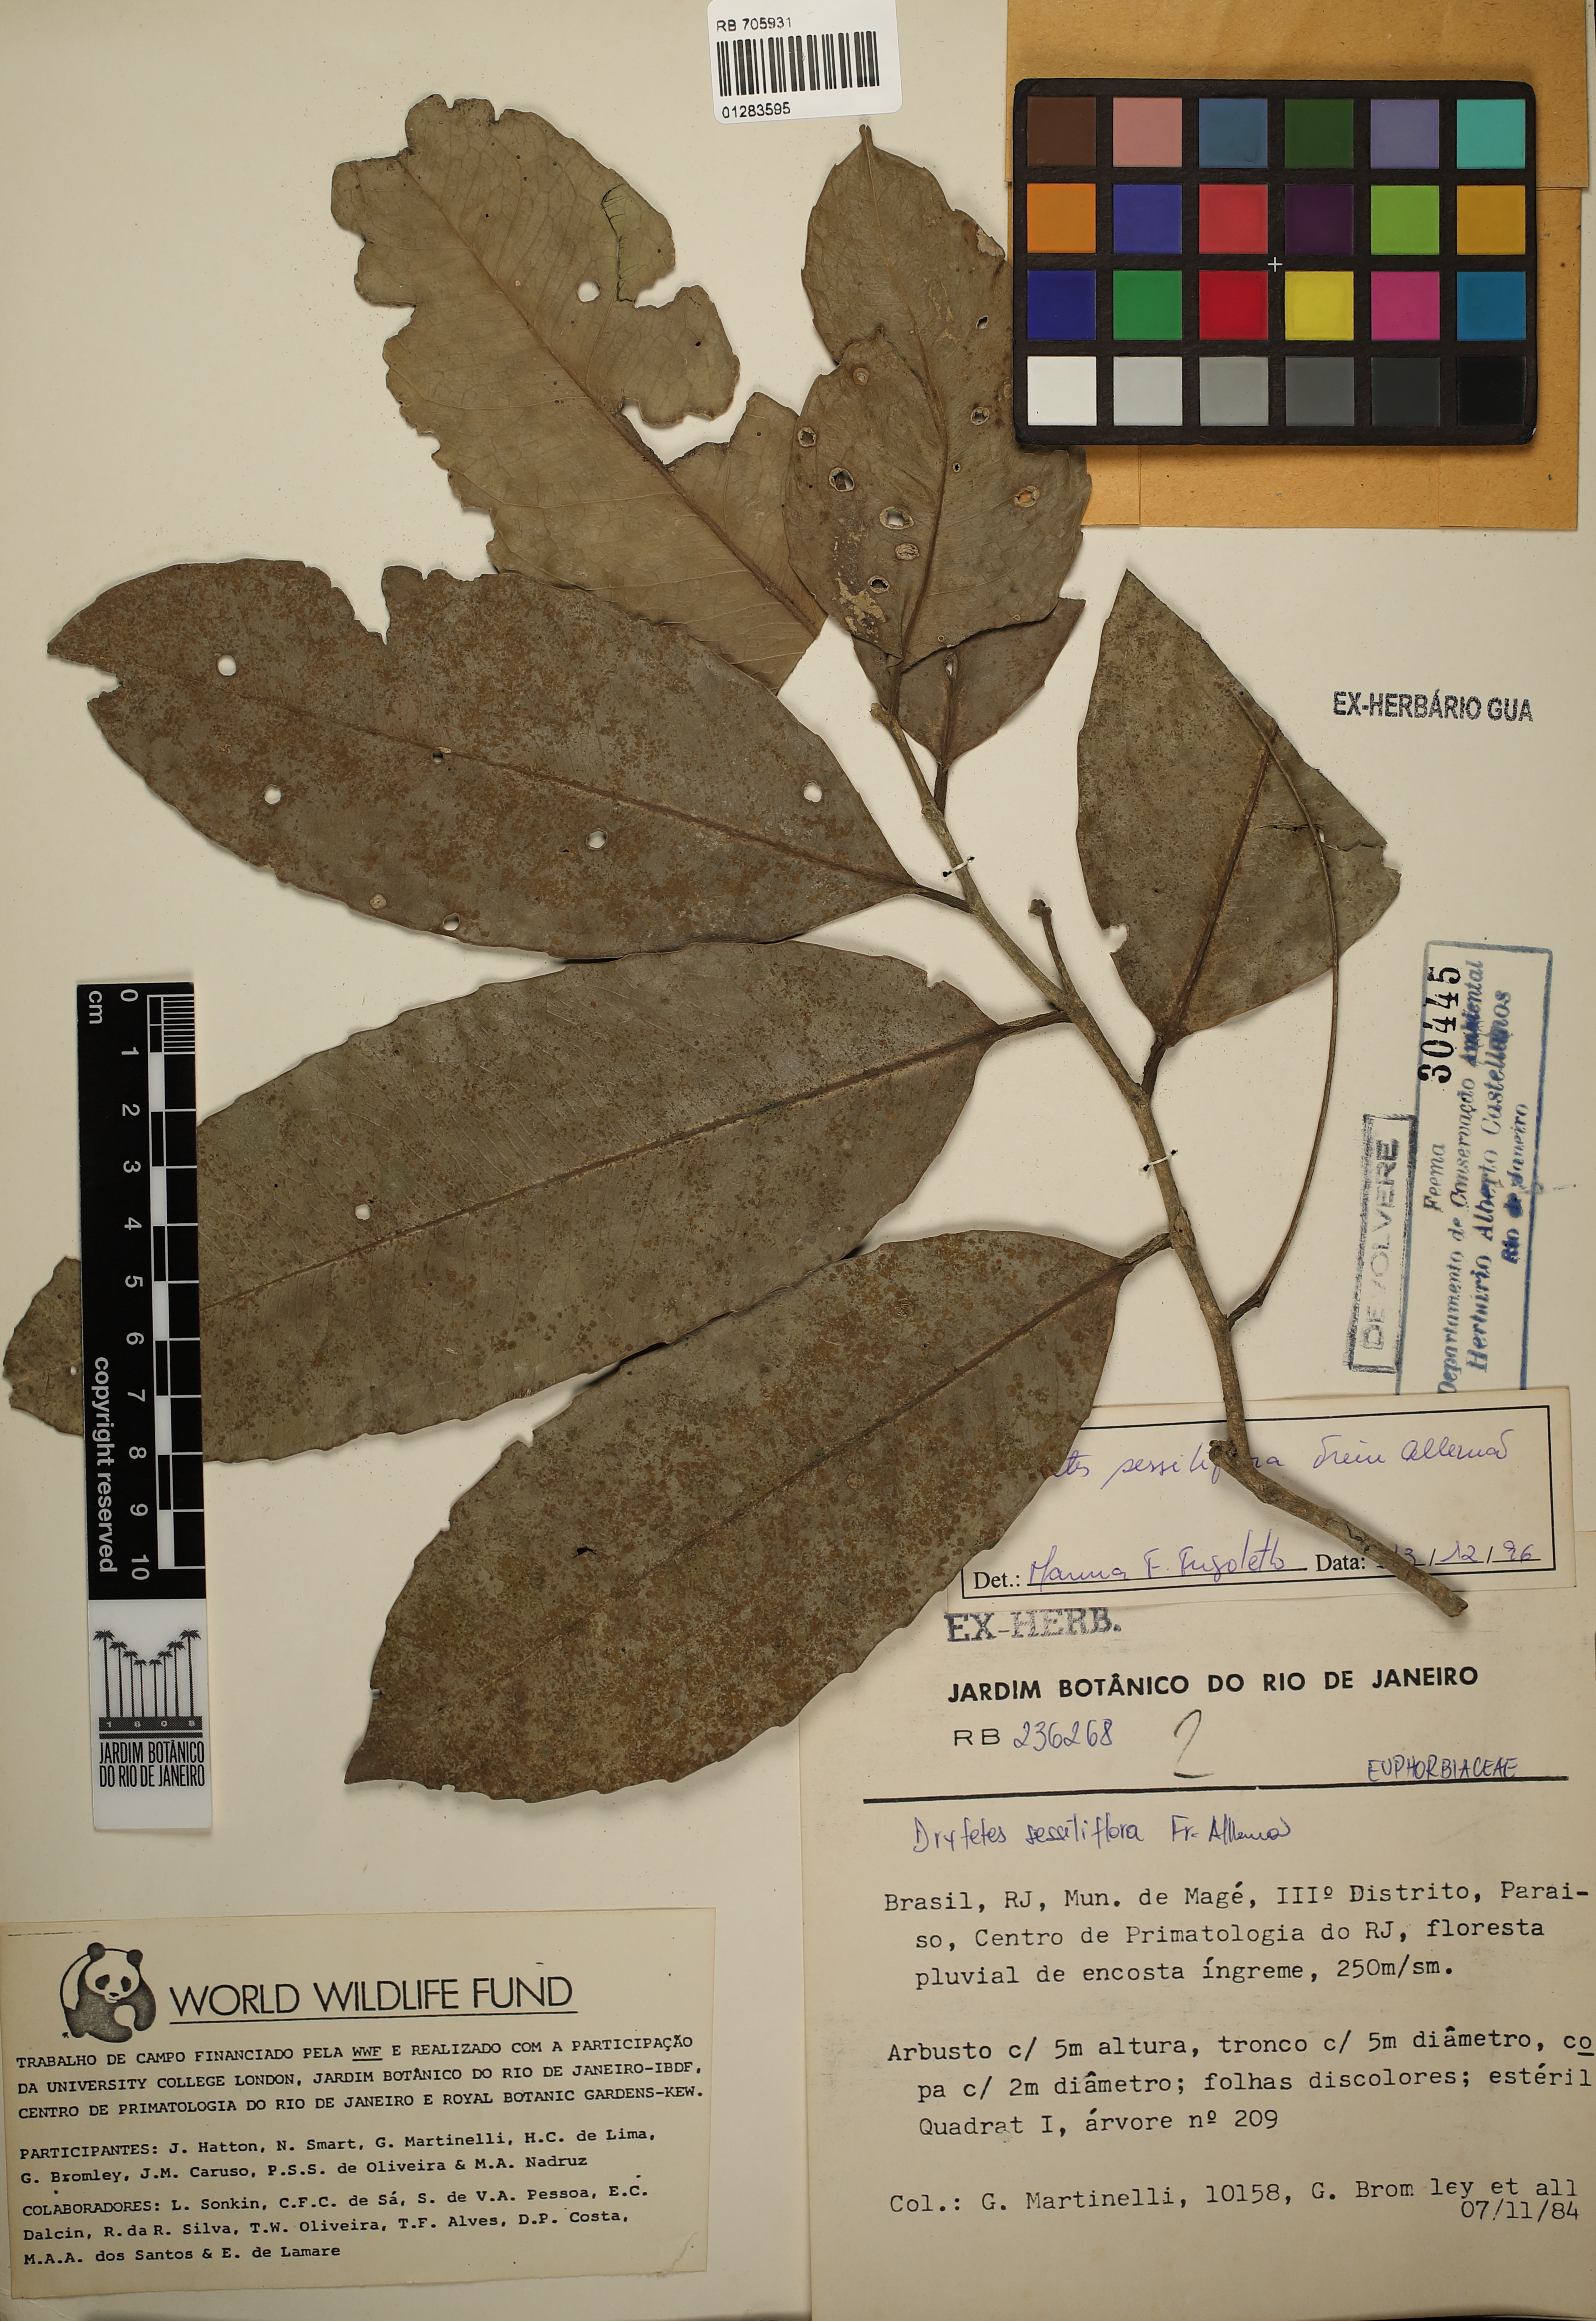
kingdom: Plantae
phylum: Tracheophyta
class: Magnoliopsida
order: Malpighiales
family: Putranjivaceae
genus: Drypetes
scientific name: Drypetes sessiliflora
